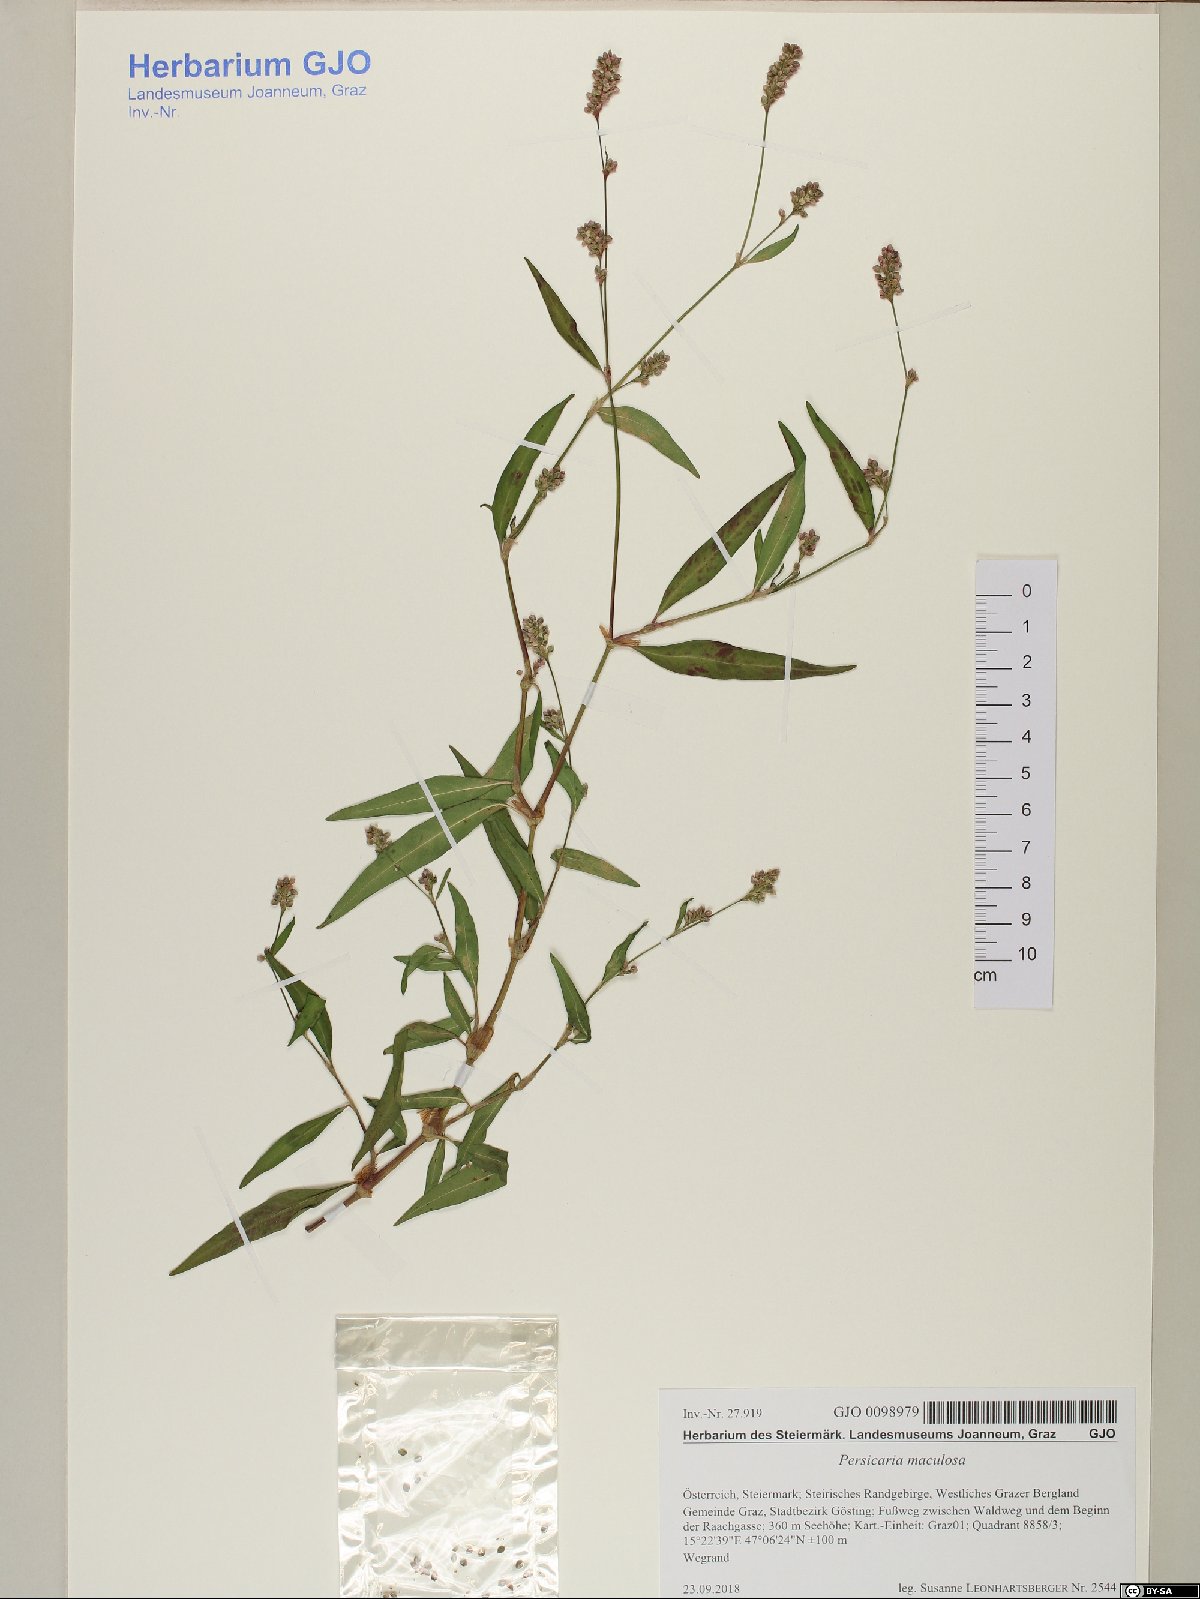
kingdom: Plantae
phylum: Tracheophyta
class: Magnoliopsida
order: Caryophyllales
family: Polygonaceae
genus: Persicaria
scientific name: Persicaria maculosa
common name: Redshank
